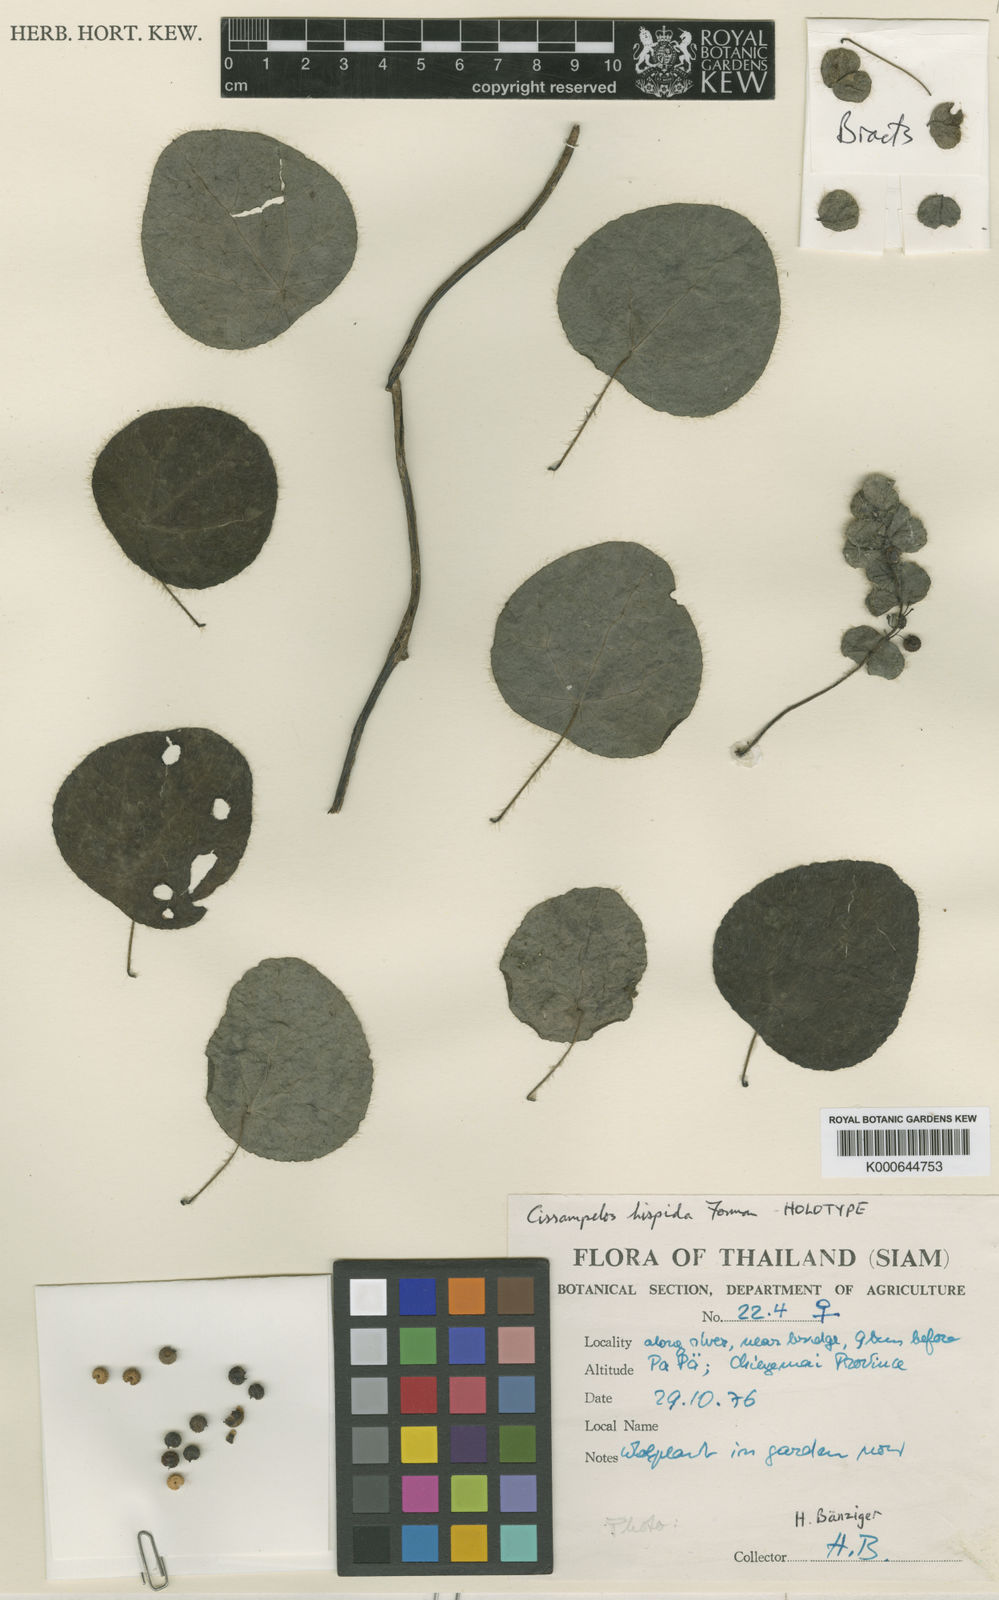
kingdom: Plantae
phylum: Tracheophyta
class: Magnoliopsida
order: Ranunculales
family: Menispermaceae
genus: Cissampelos
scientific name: Cissampelos hispida
